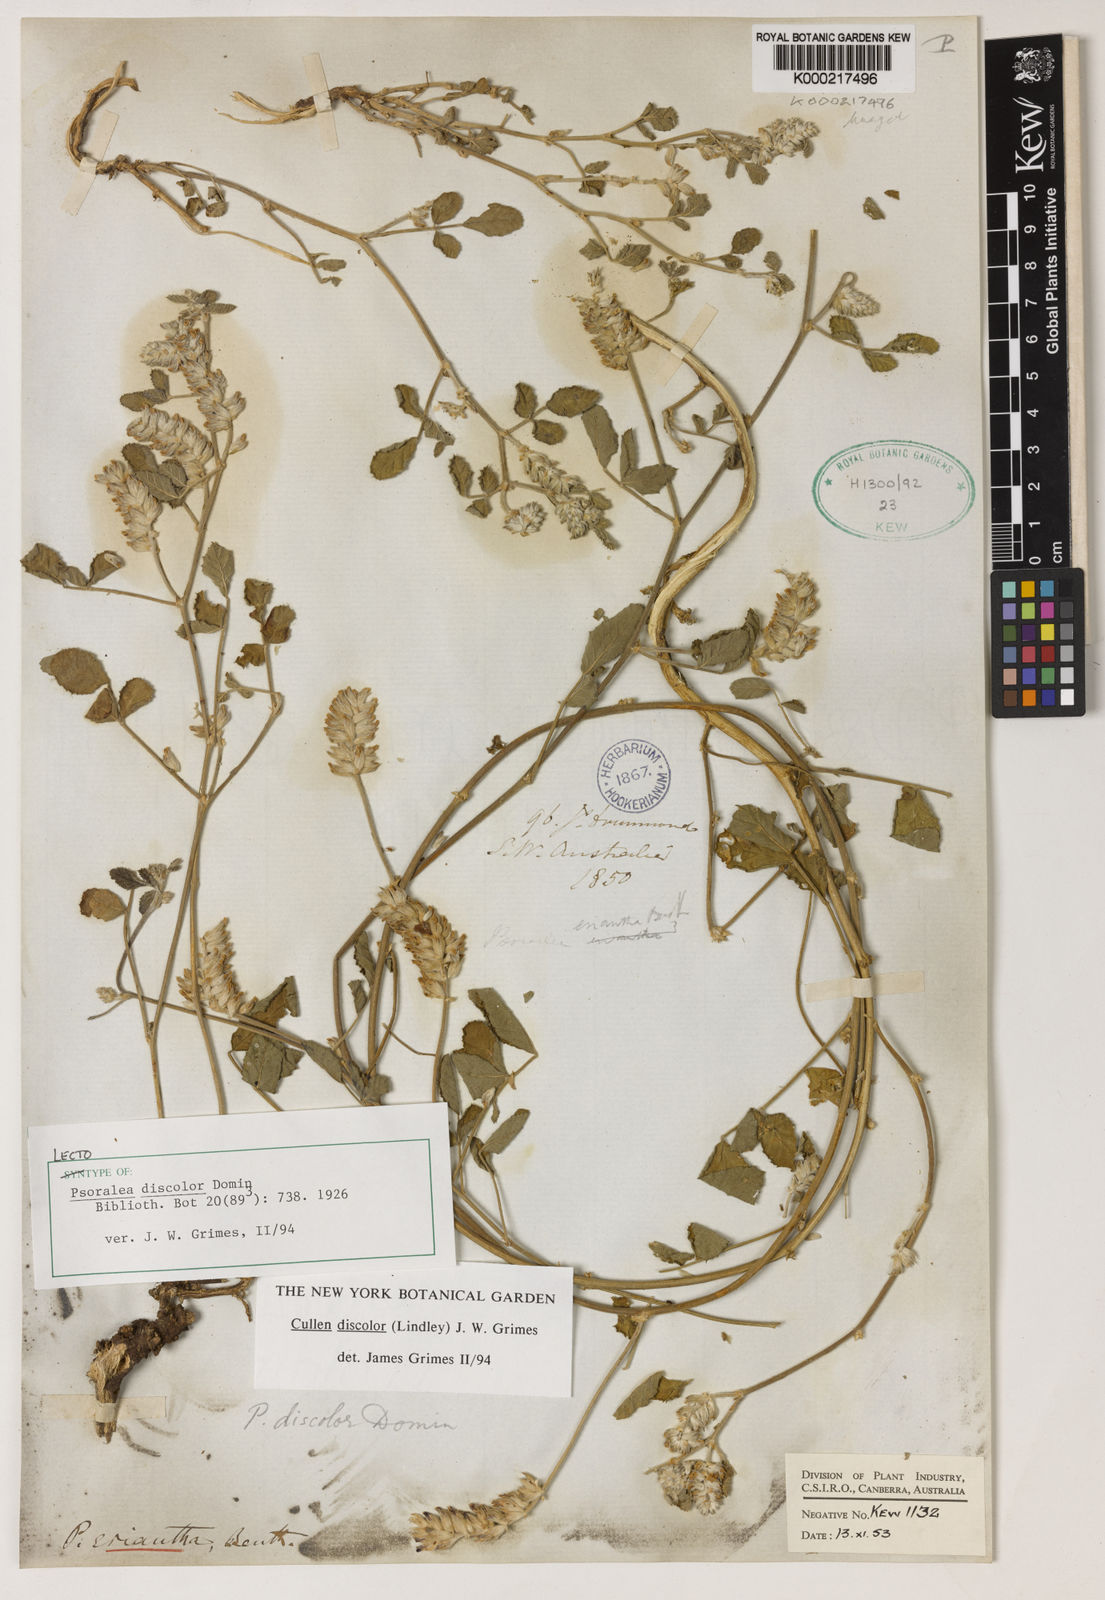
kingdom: Plantae
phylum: Tracheophyta
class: Magnoliopsida
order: Fabales
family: Fabaceae
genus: Cullen
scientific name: Cullen discolor
